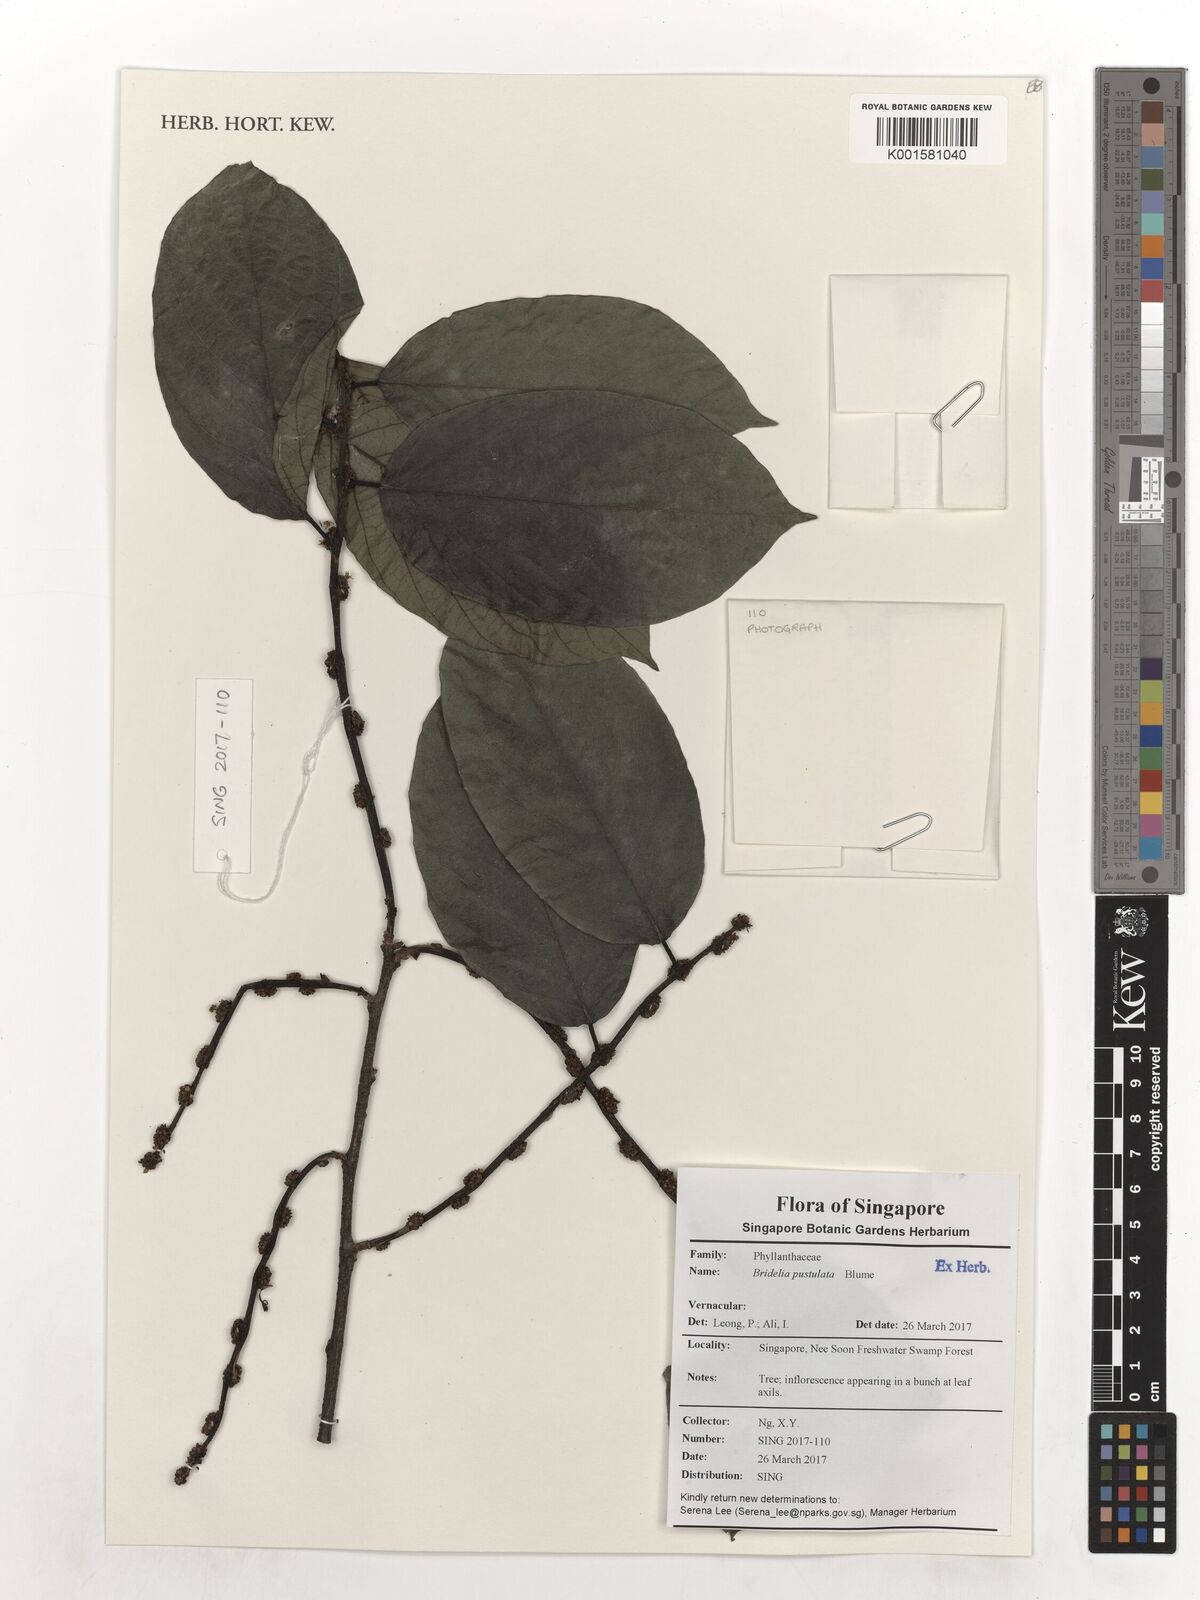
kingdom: Plantae
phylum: Tracheophyta
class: Magnoliopsida
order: Malpighiales
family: Phyllanthaceae
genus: Bridelia
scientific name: Bridelia pustulata
